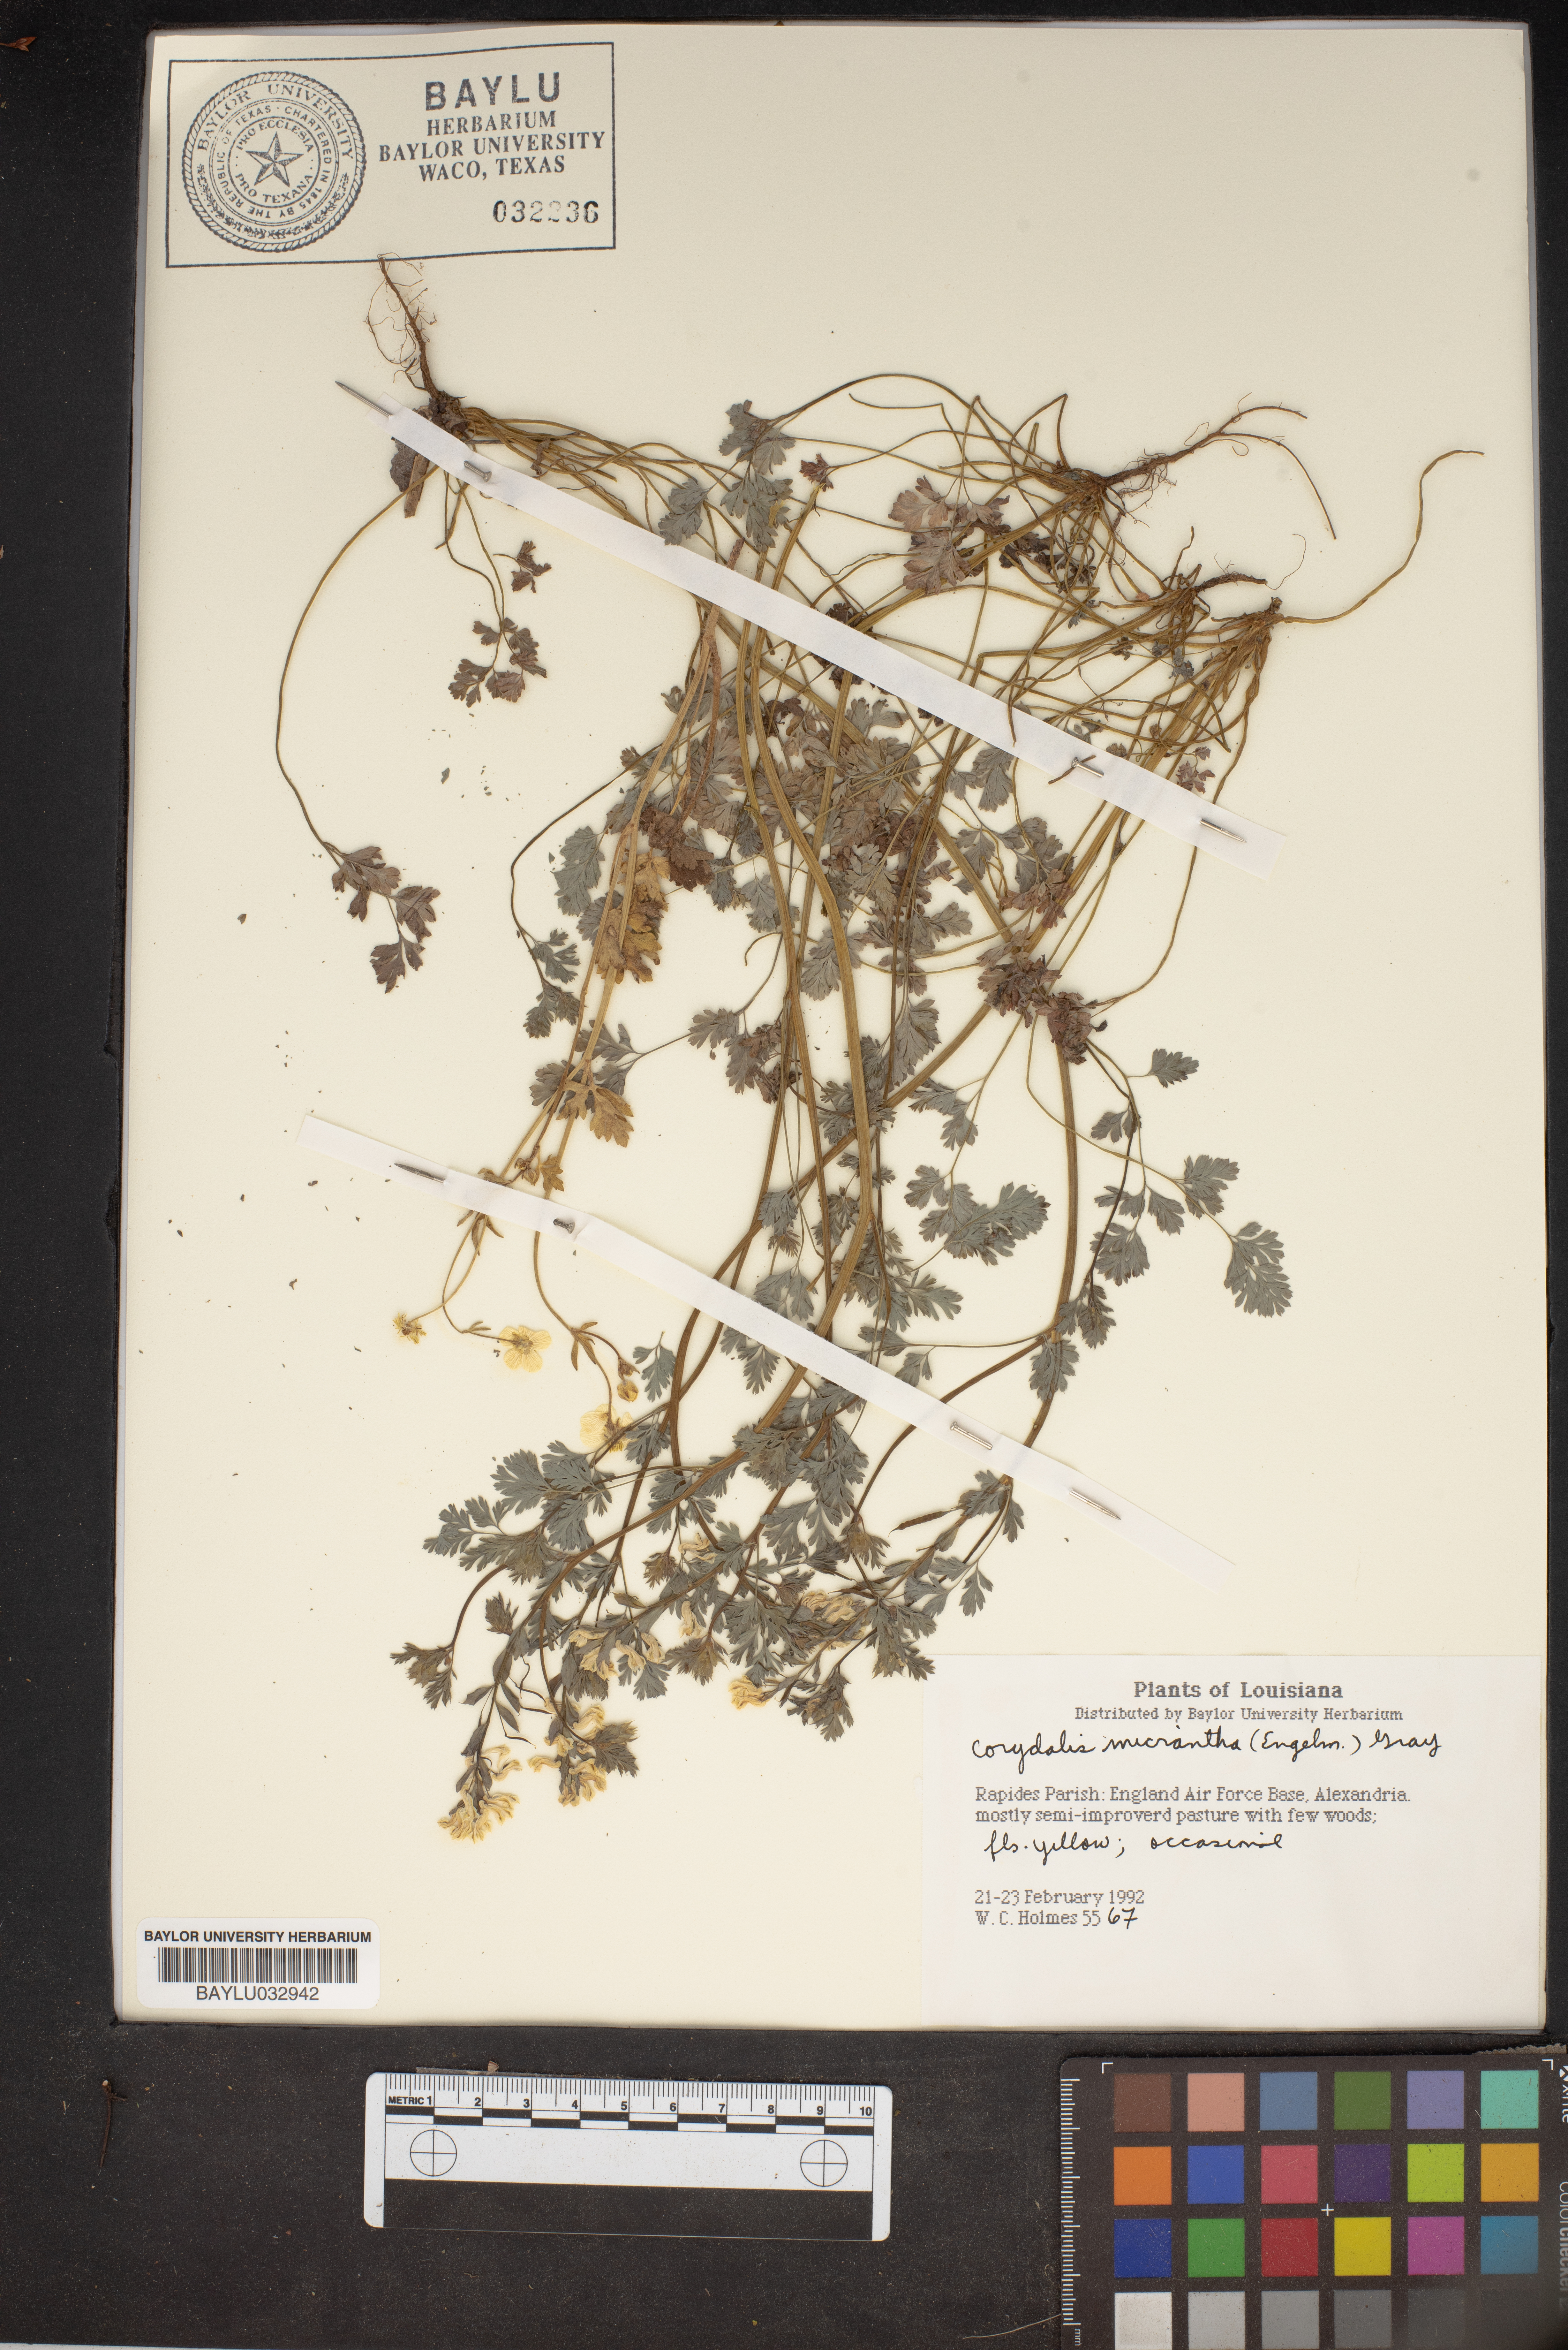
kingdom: Plantae
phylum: Tracheophyta
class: Magnoliopsida
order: Ranunculales
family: Papaveraceae
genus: Corydalis
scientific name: Corydalis micrantha
